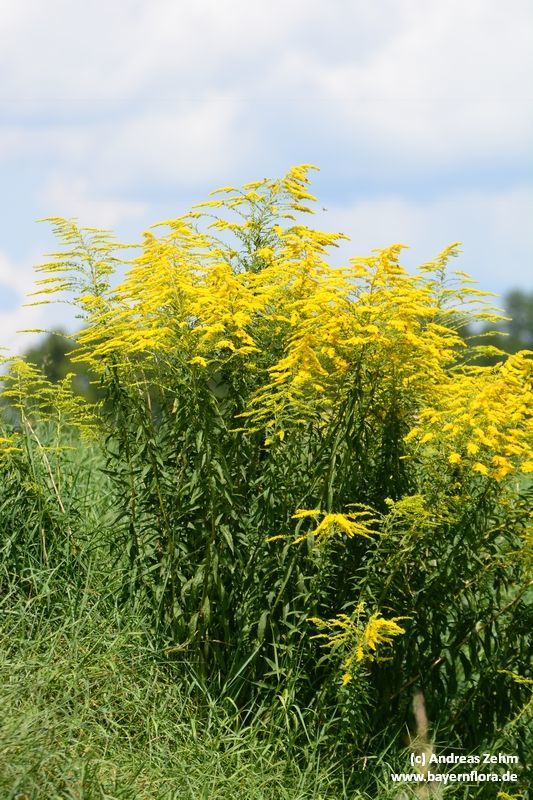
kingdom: Plantae
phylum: Tracheophyta
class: Magnoliopsida
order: Asterales
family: Asteraceae
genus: Solidago
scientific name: Solidago canadensis
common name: Canada goldenrod
